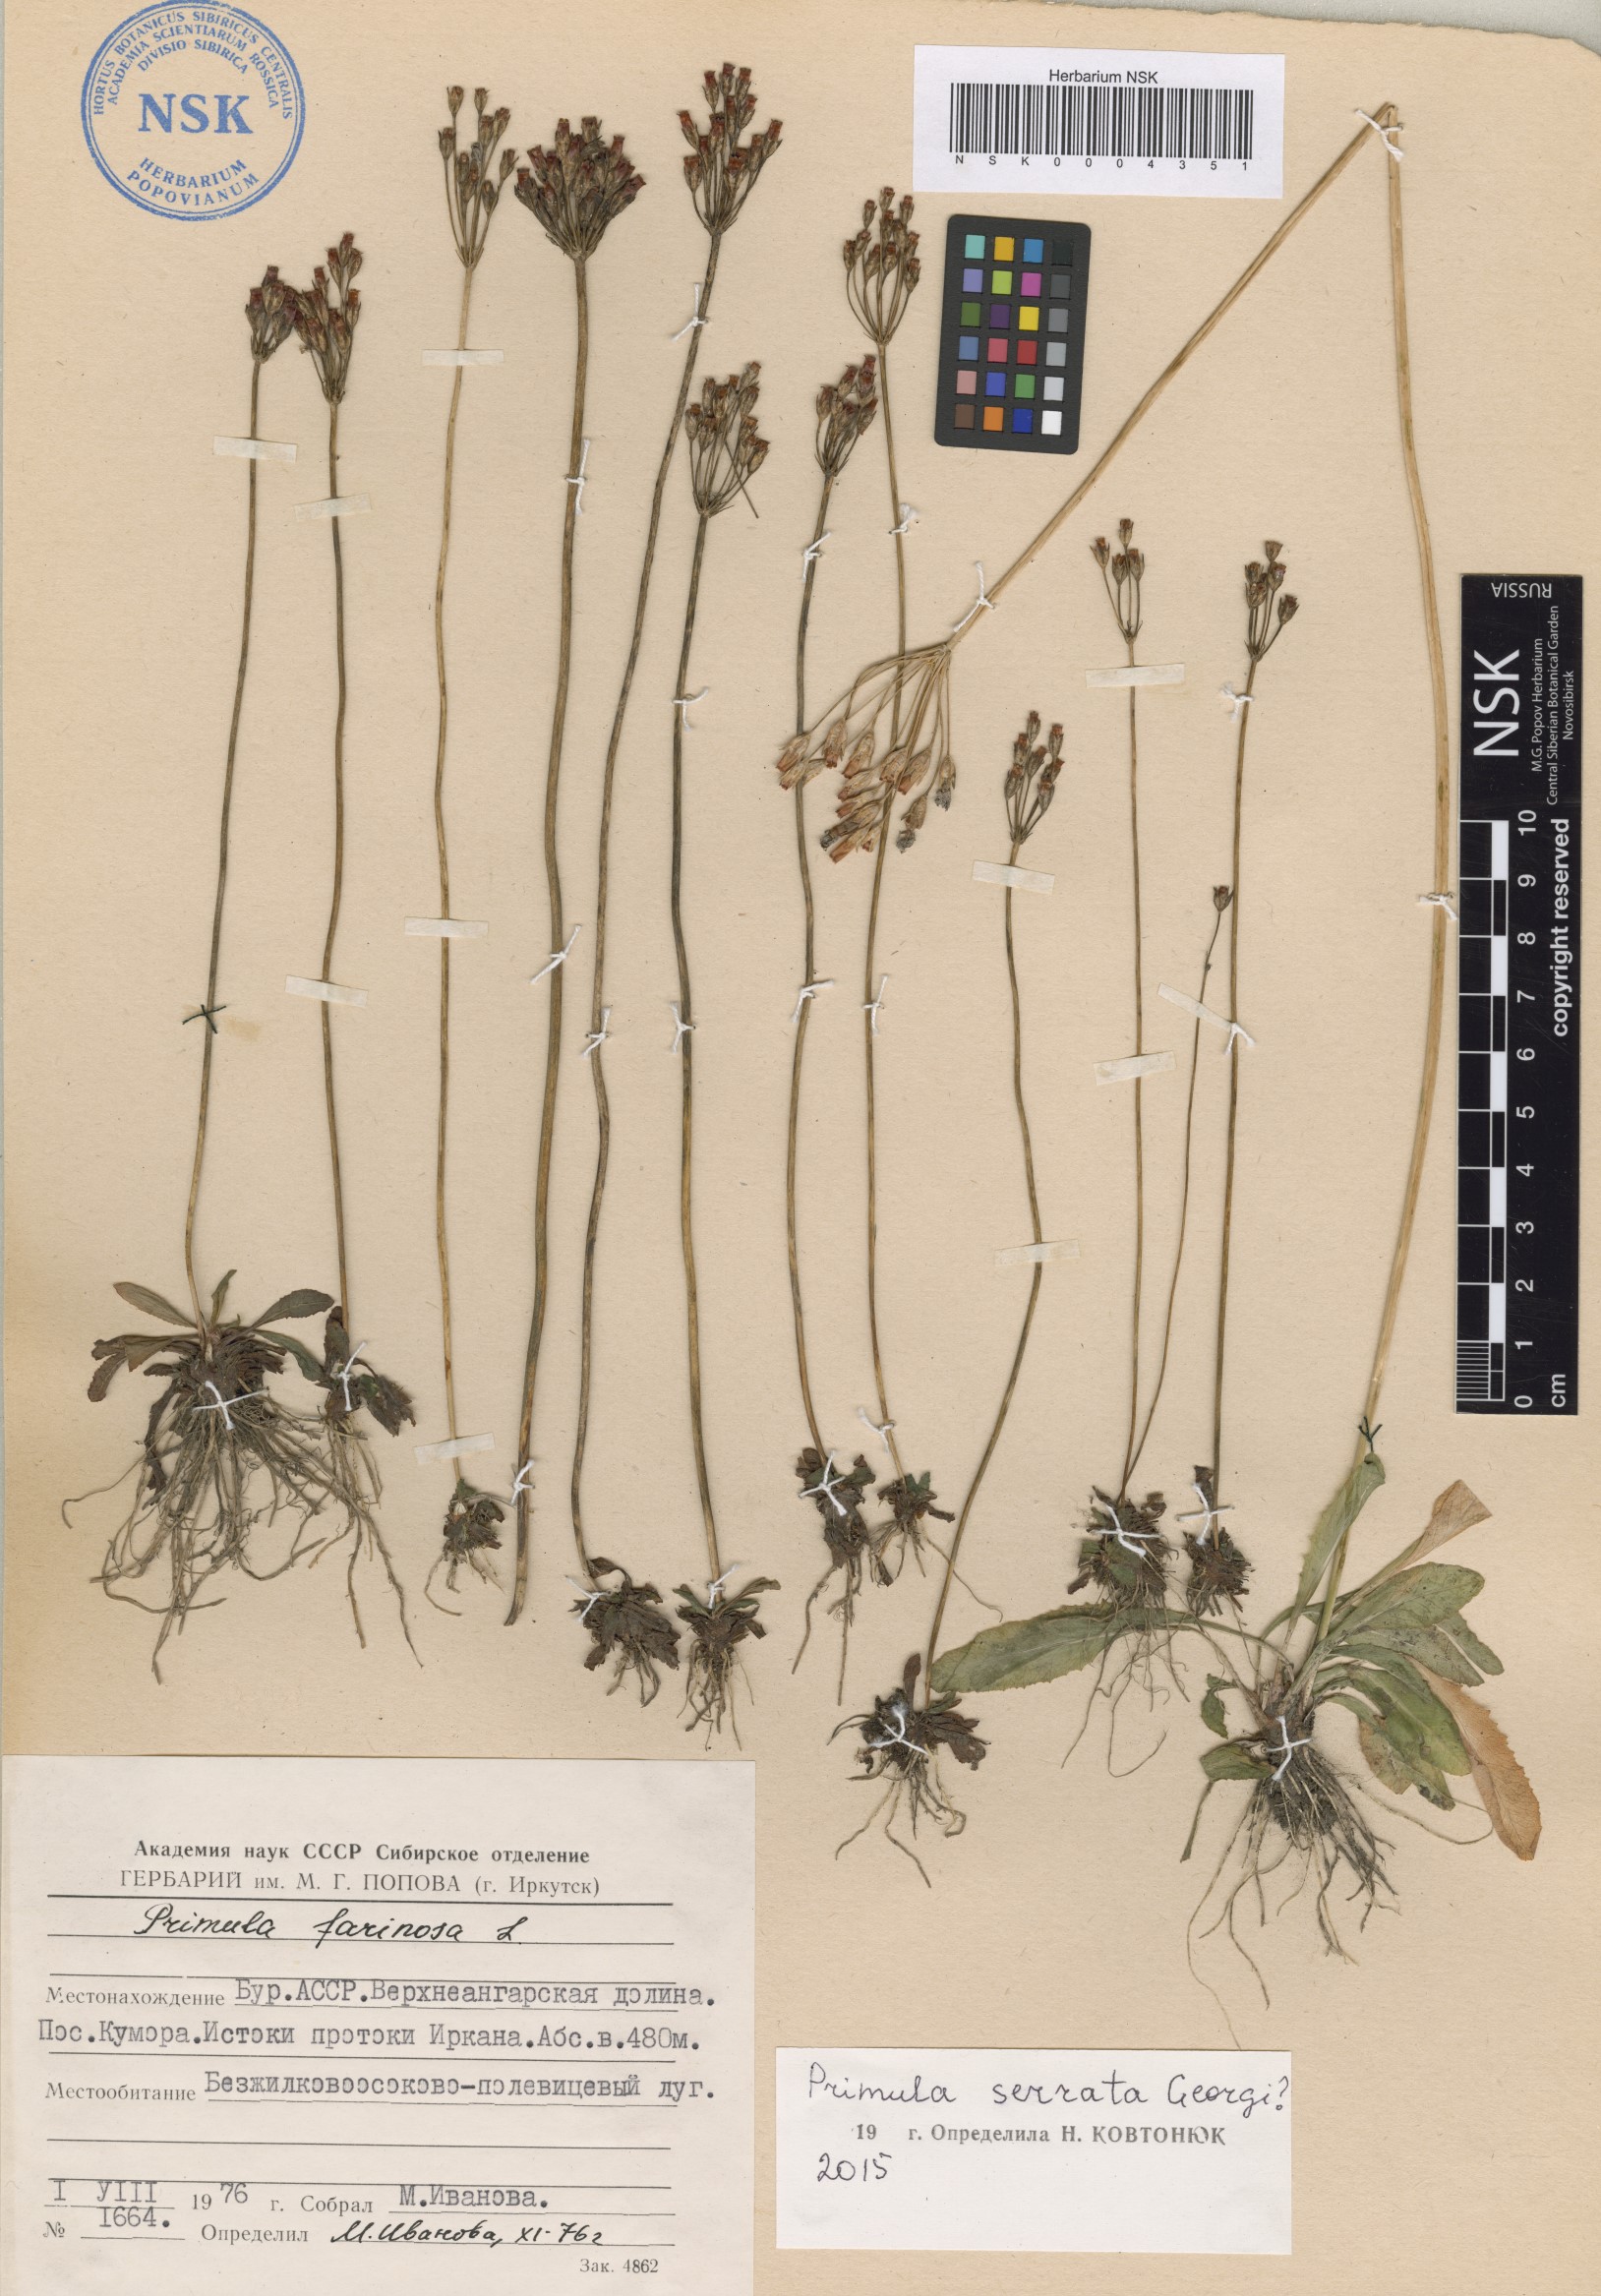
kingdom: Plantae
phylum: Tracheophyta
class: Magnoliopsida
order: Asterales
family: Asteraceae
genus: Taraxacum
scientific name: Taraxacum mujense
